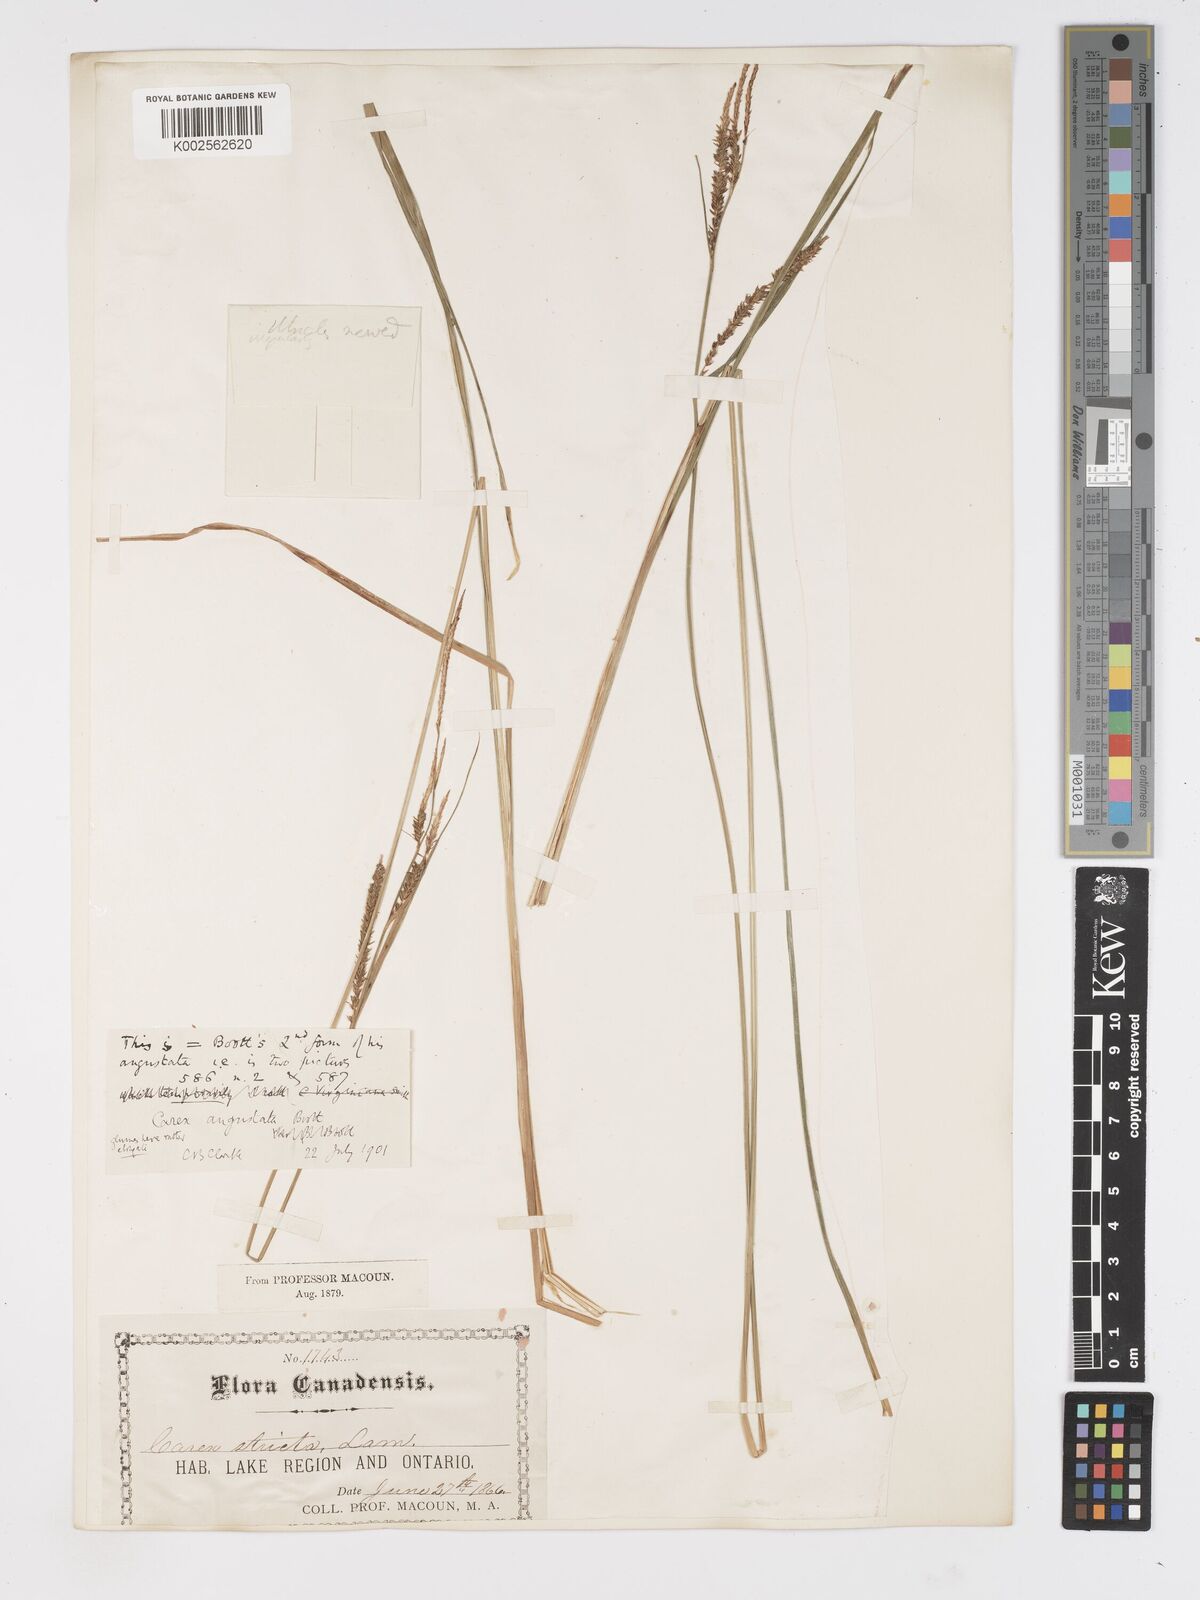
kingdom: Plantae
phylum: Tracheophyta
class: Liliopsida
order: Poales
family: Cyperaceae
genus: Carex
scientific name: Carex stricta
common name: Hummock sedge
